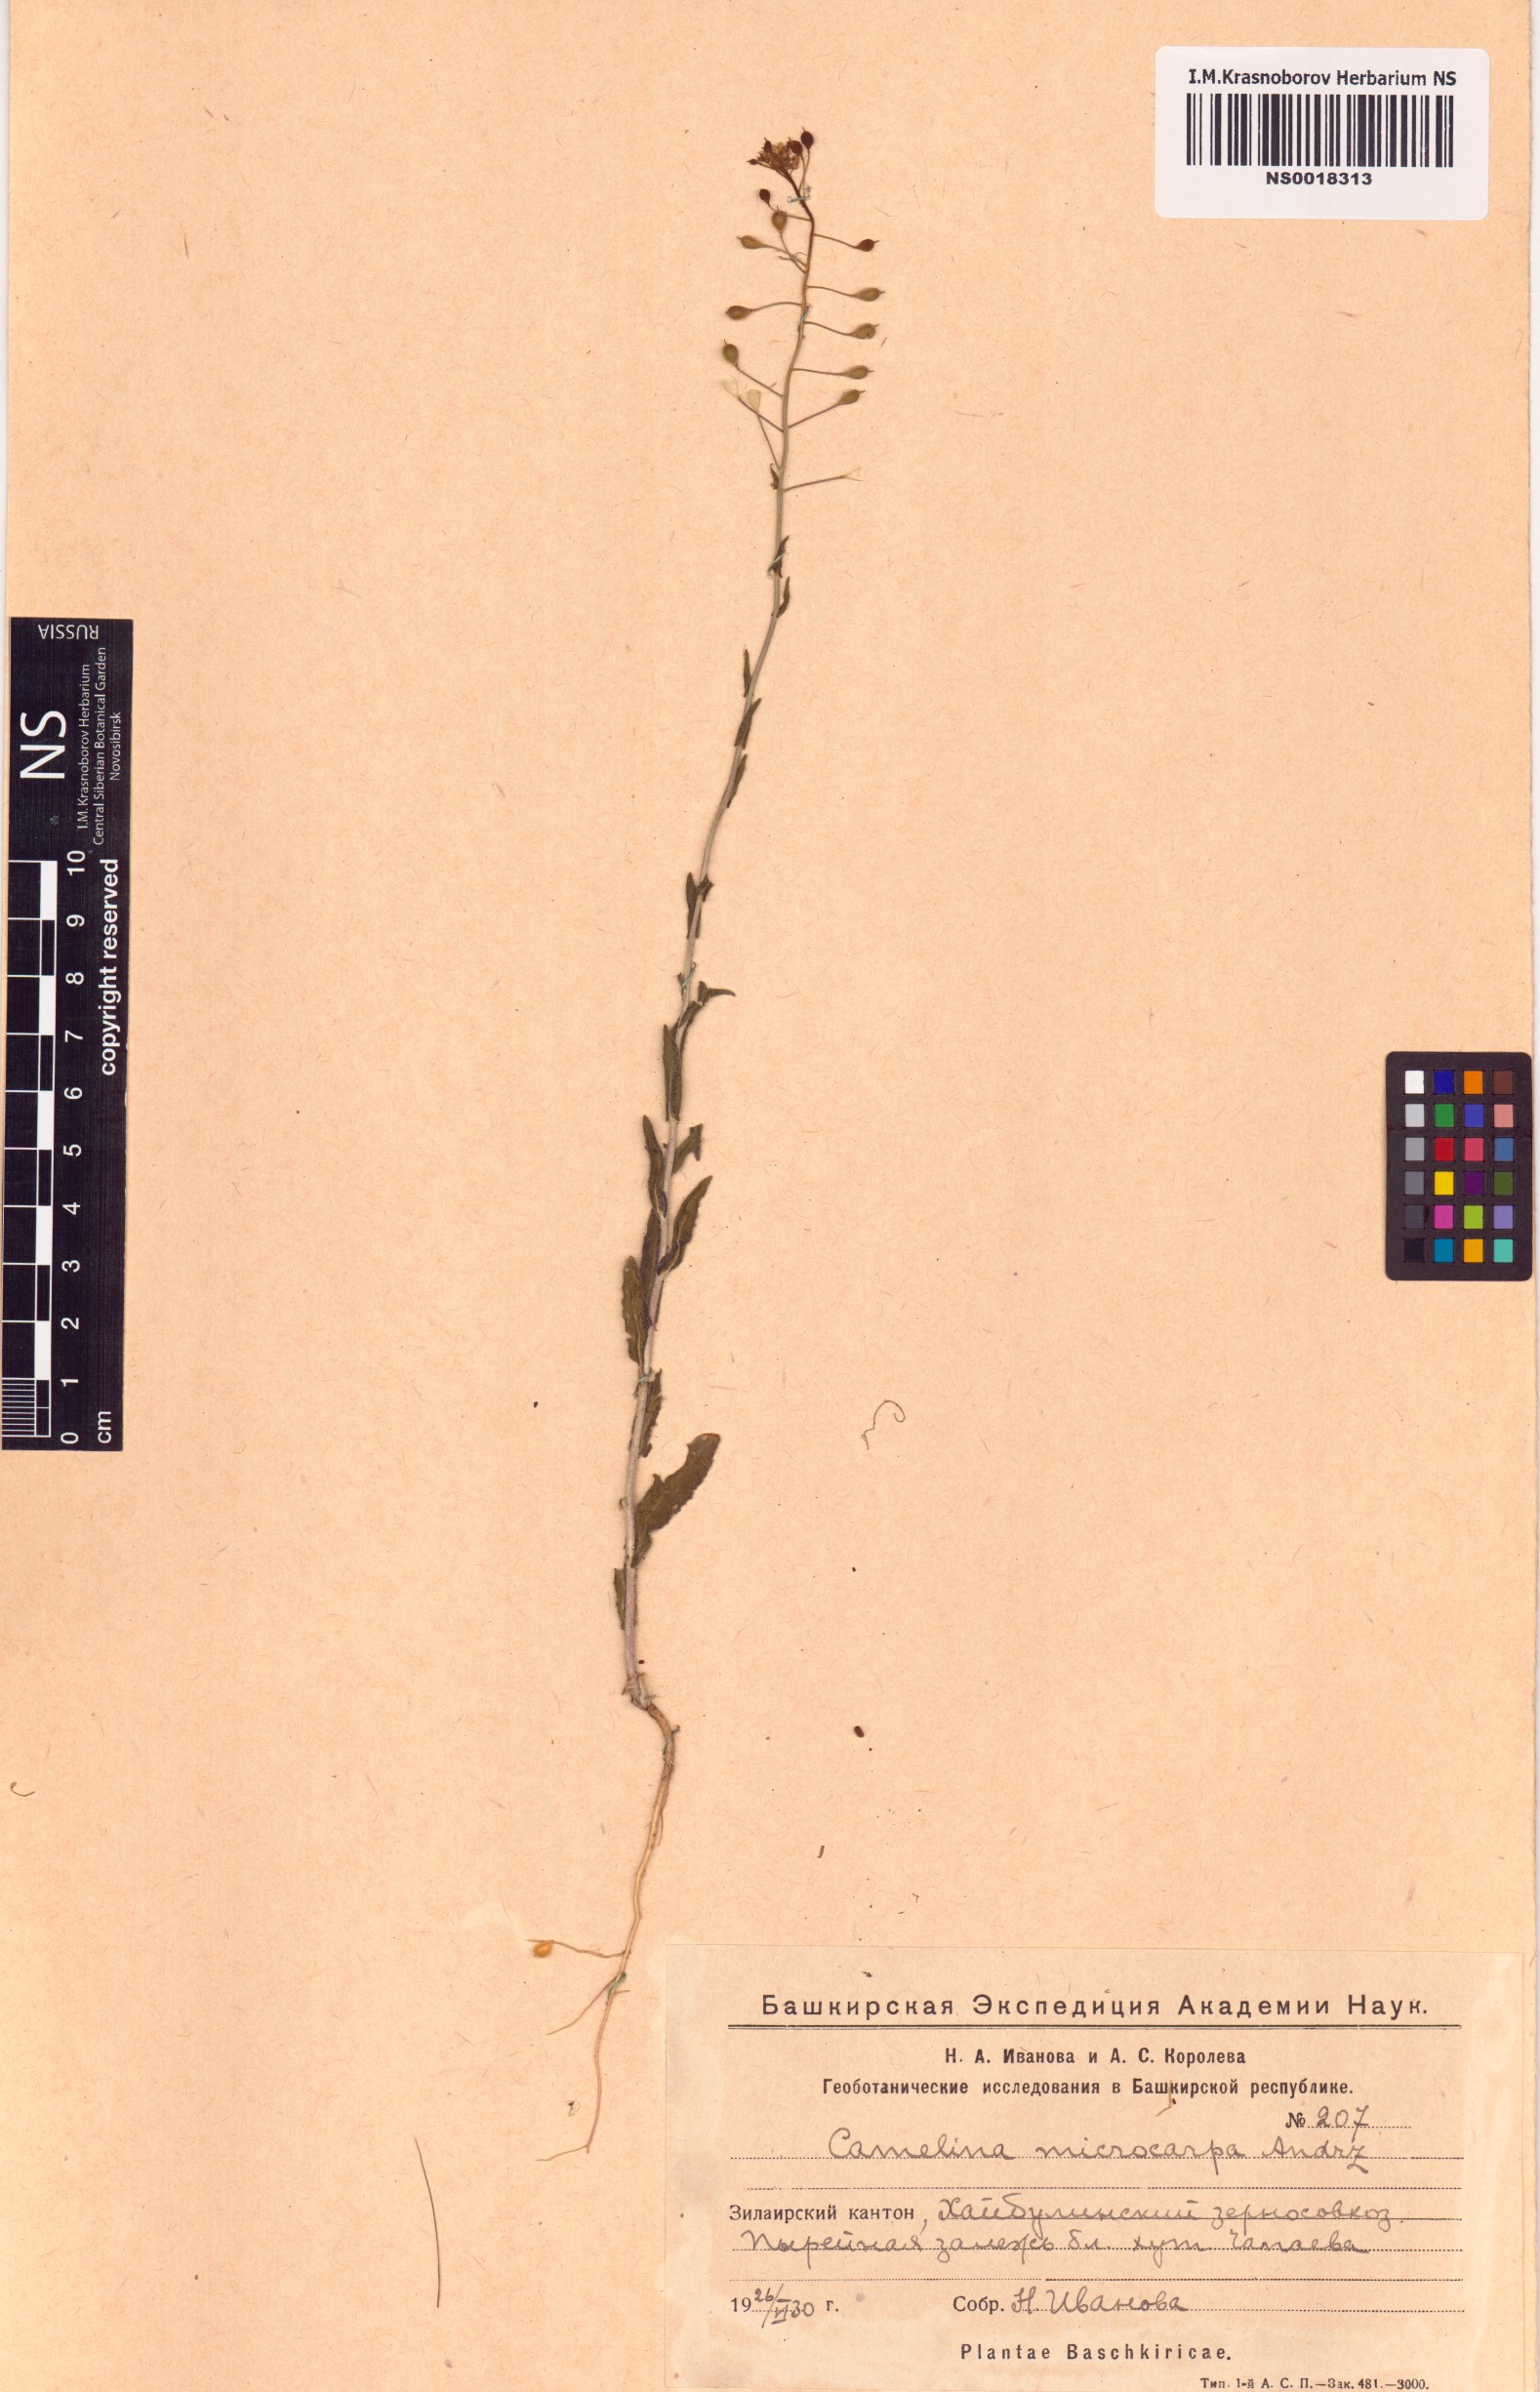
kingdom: Plantae
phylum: Tracheophyta
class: Magnoliopsida
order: Brassicales
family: Brassicaceae
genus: Camelina
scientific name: Camelina microcarpa
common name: Lesser gold-of-pleasure
